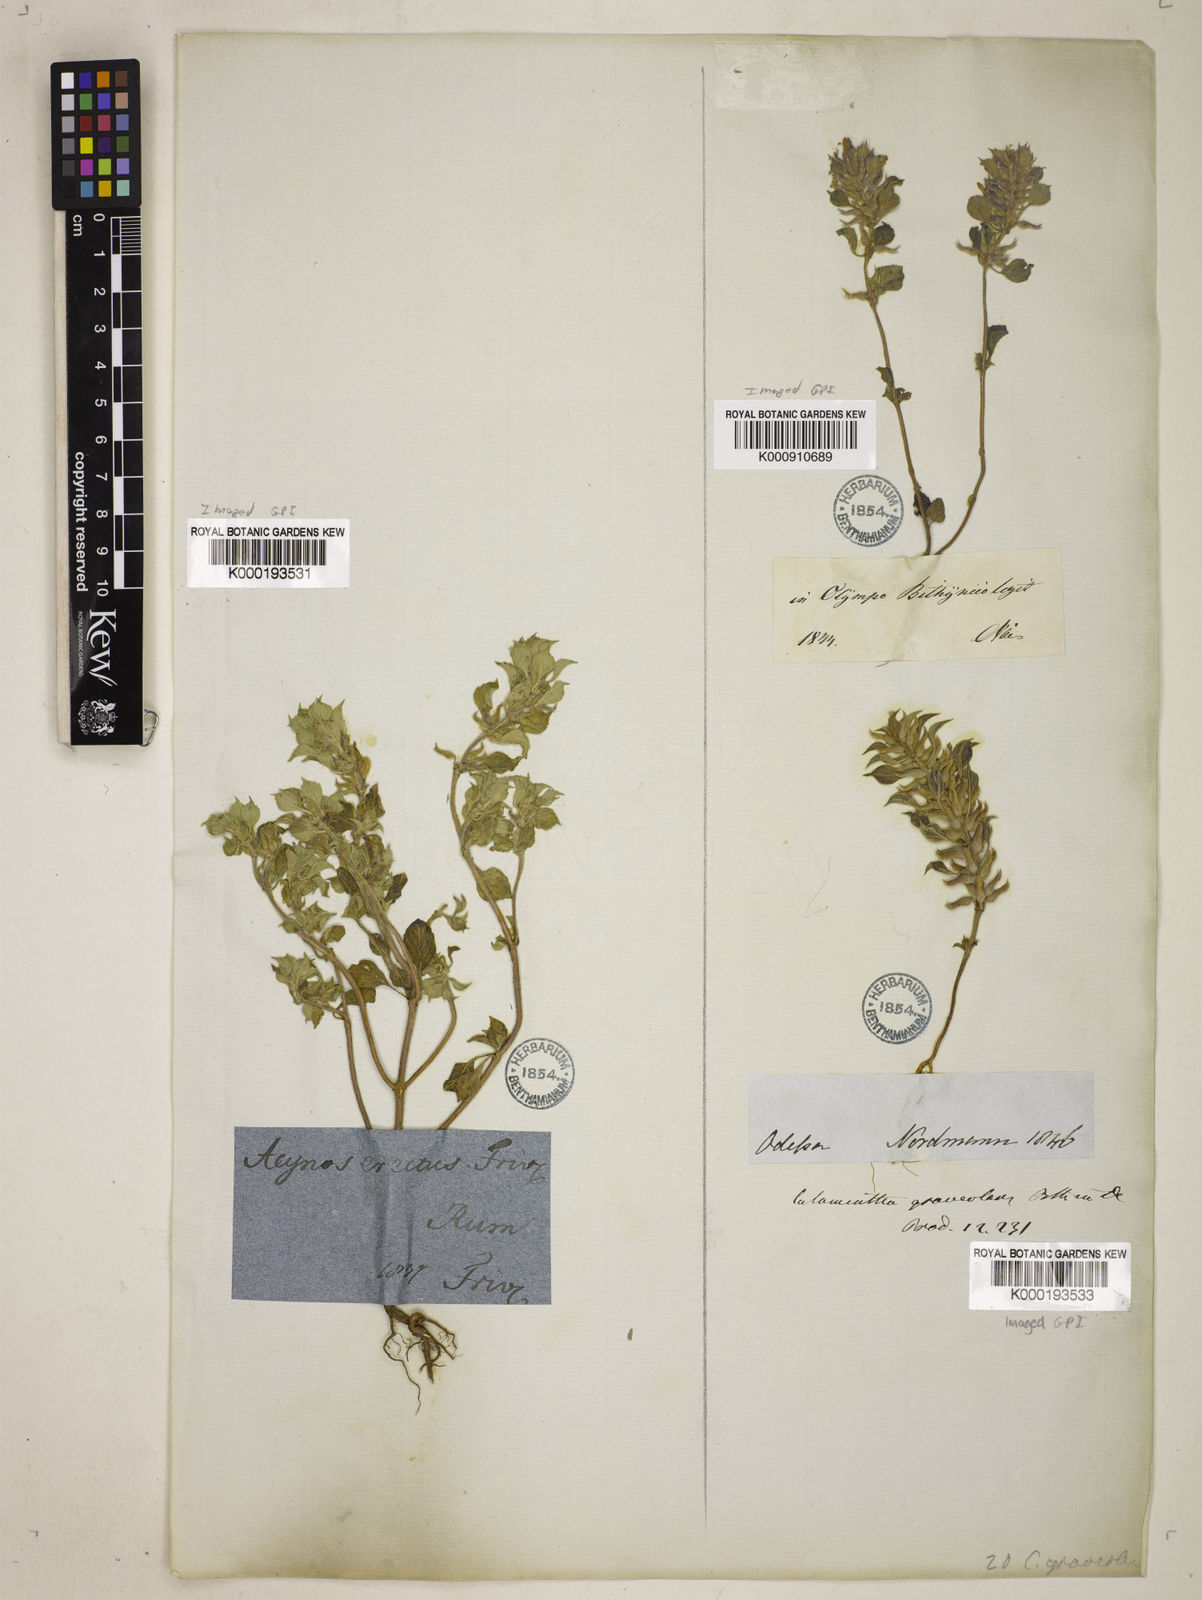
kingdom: Plantae
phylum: Tracheophyta
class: Magnoliopsida
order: Lamiales
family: Lamiaceae
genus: Clinopodium
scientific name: Clinopodium graveolens
